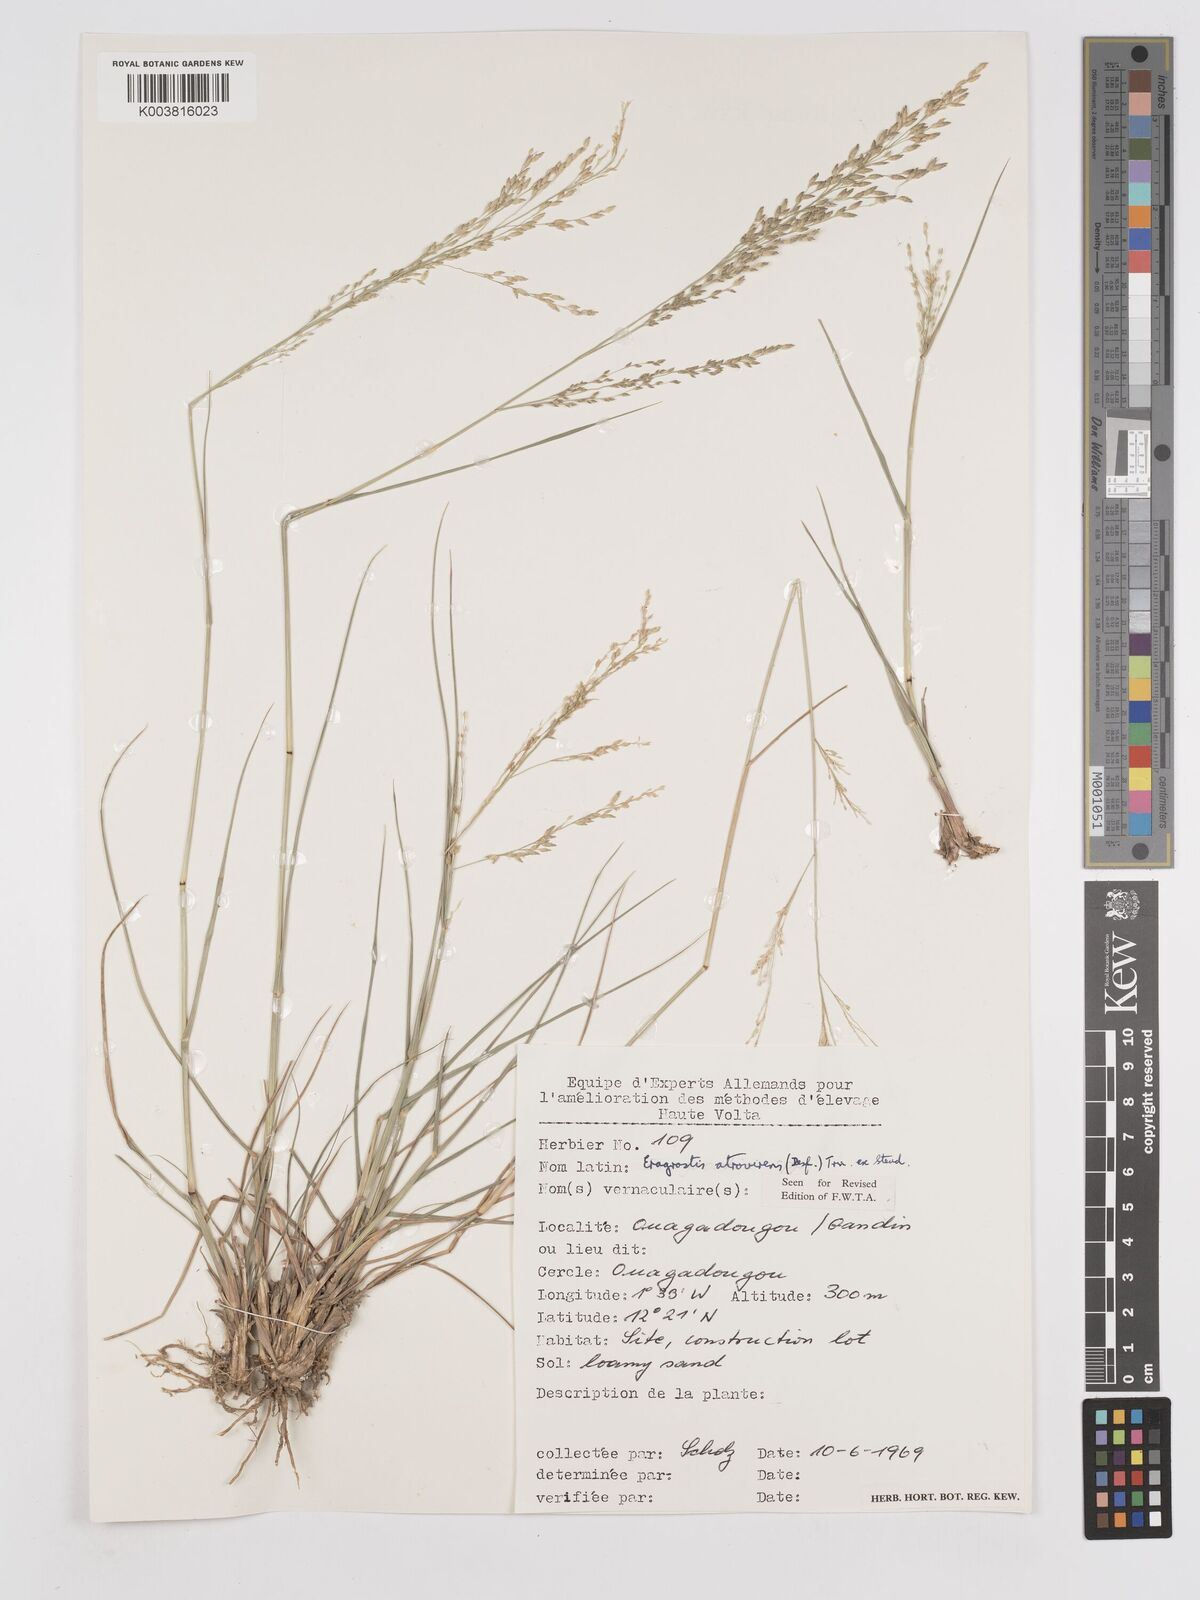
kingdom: Plantae
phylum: Tracheophyta
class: Liliopsida
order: Poales
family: Poaceae
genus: Eragrostis
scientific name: Eragrostis atrovirens
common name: Thalia lovegrass
